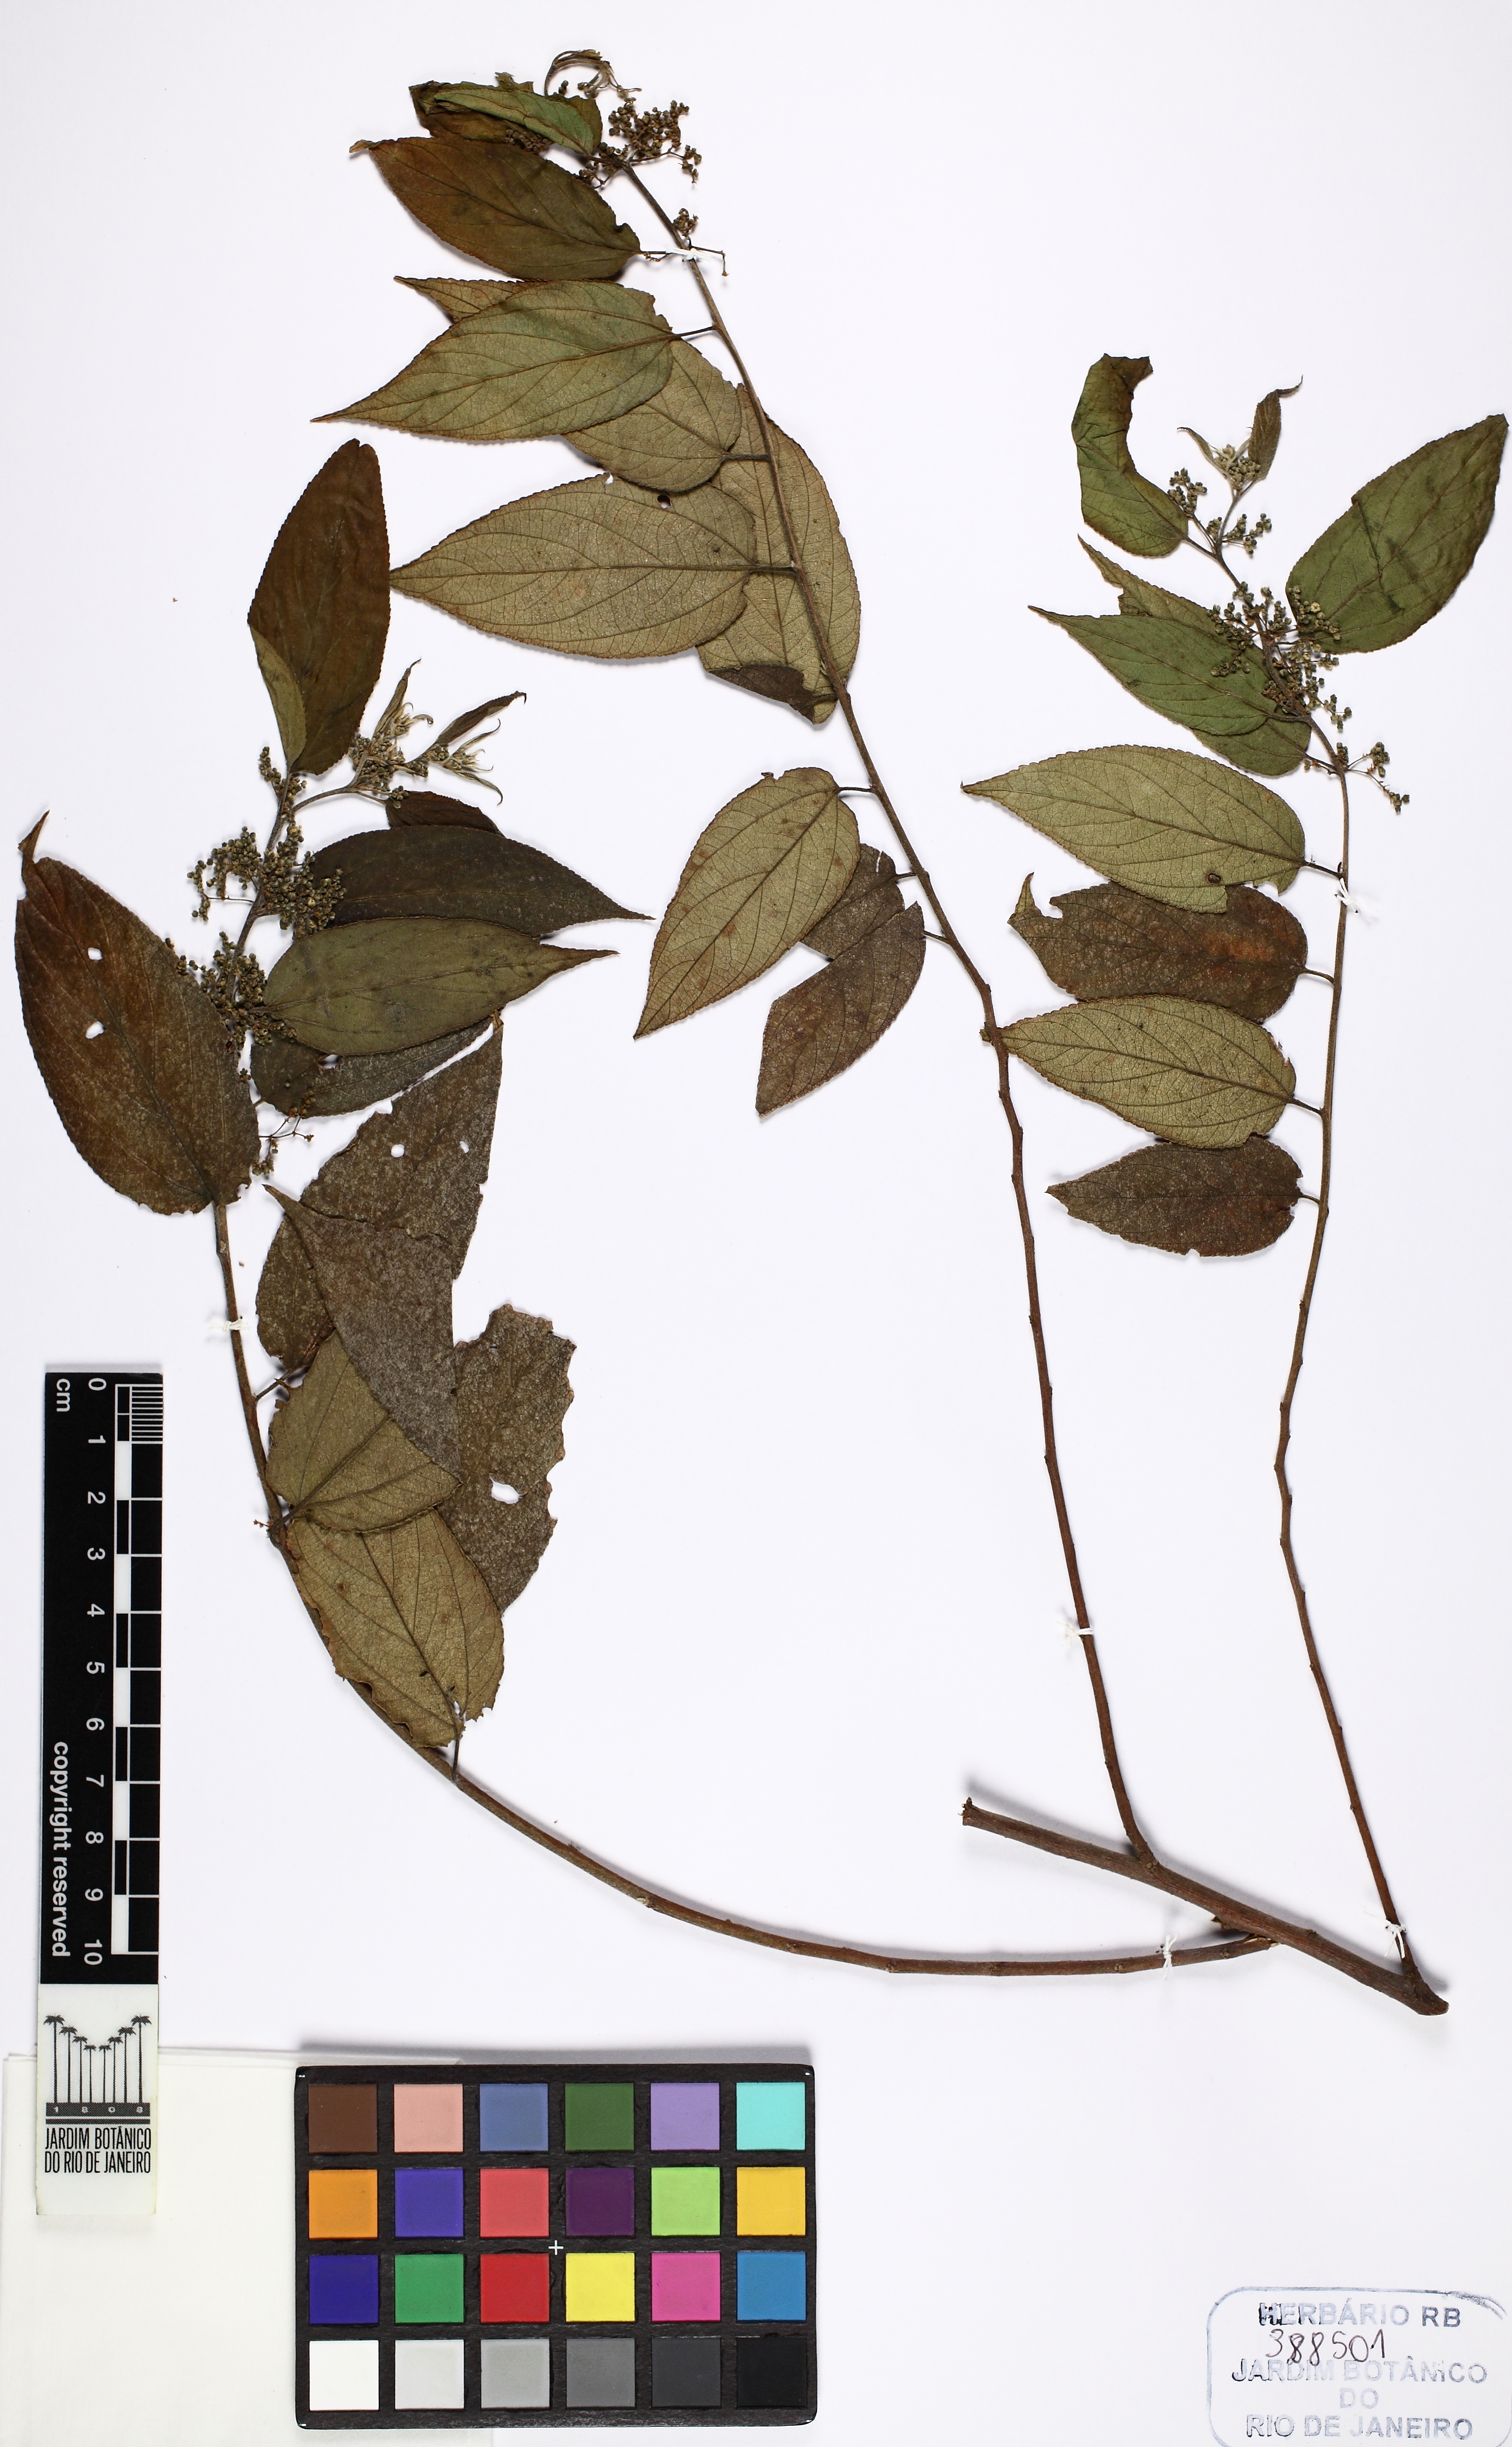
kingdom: Plantae
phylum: Tracheophyta
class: Magnoliopsida
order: Rosales
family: Cannabaceae
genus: Trema
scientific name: Trema micranthum
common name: Jamaican nettletree
